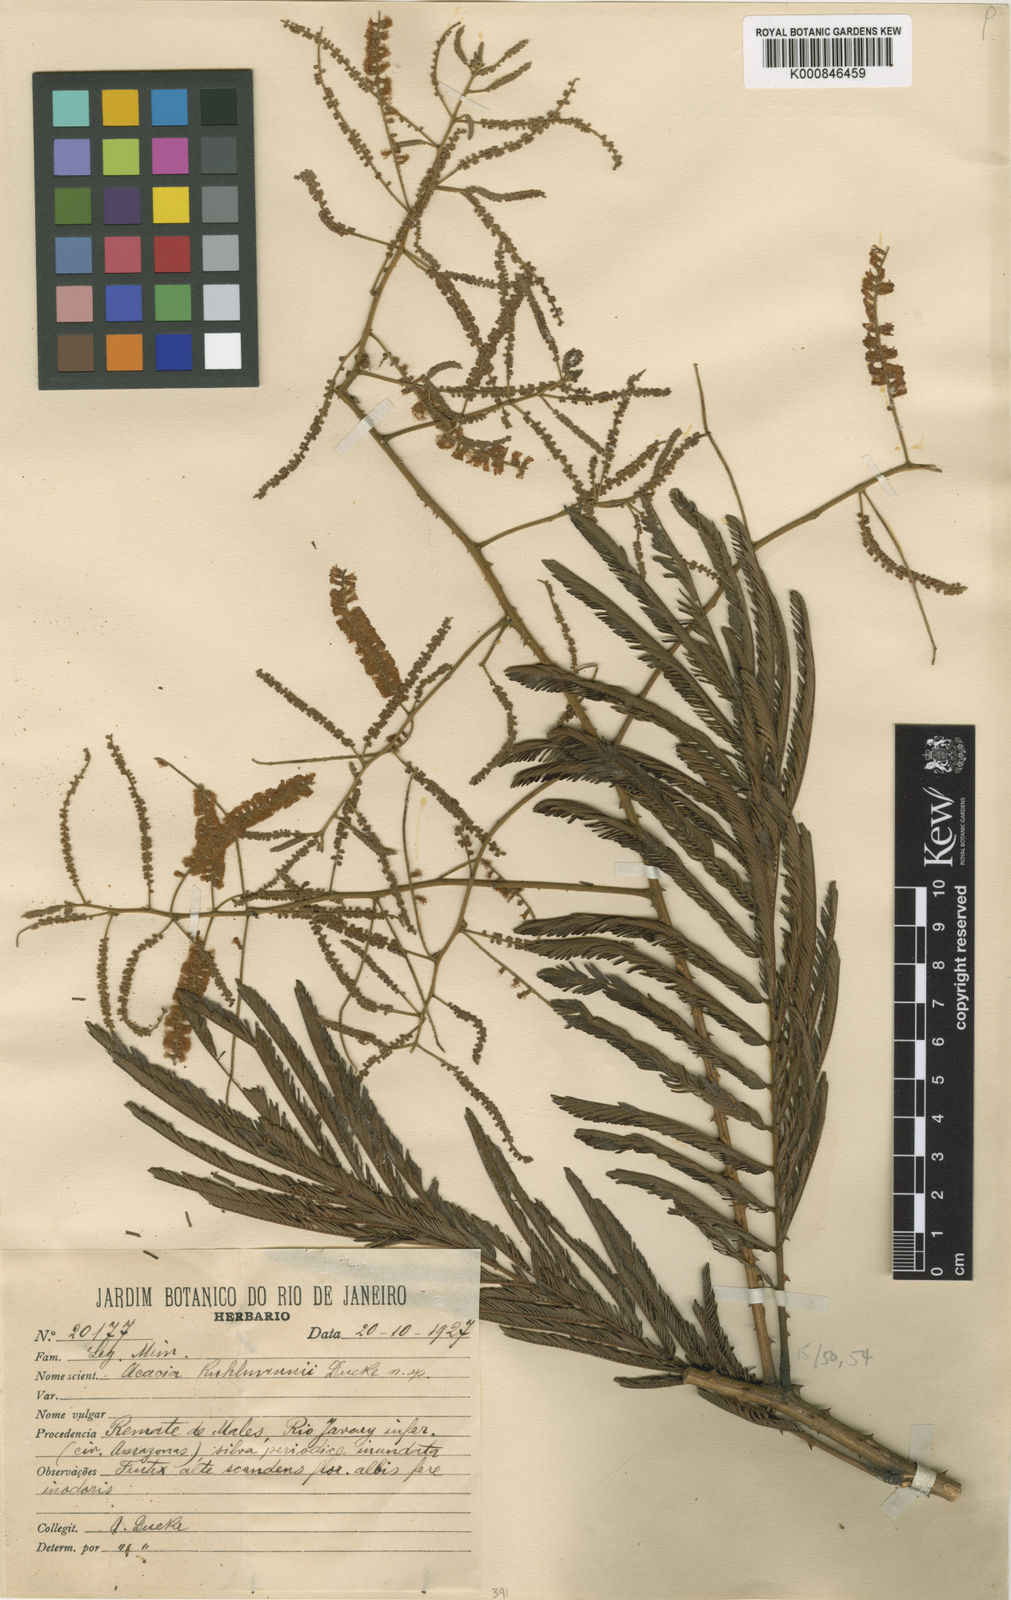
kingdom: Plantae
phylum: Tracheophyta
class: Magnoliopsida
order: Fabales
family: Fabaceae
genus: Senegalia
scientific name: Senegalia kuhlmannii
